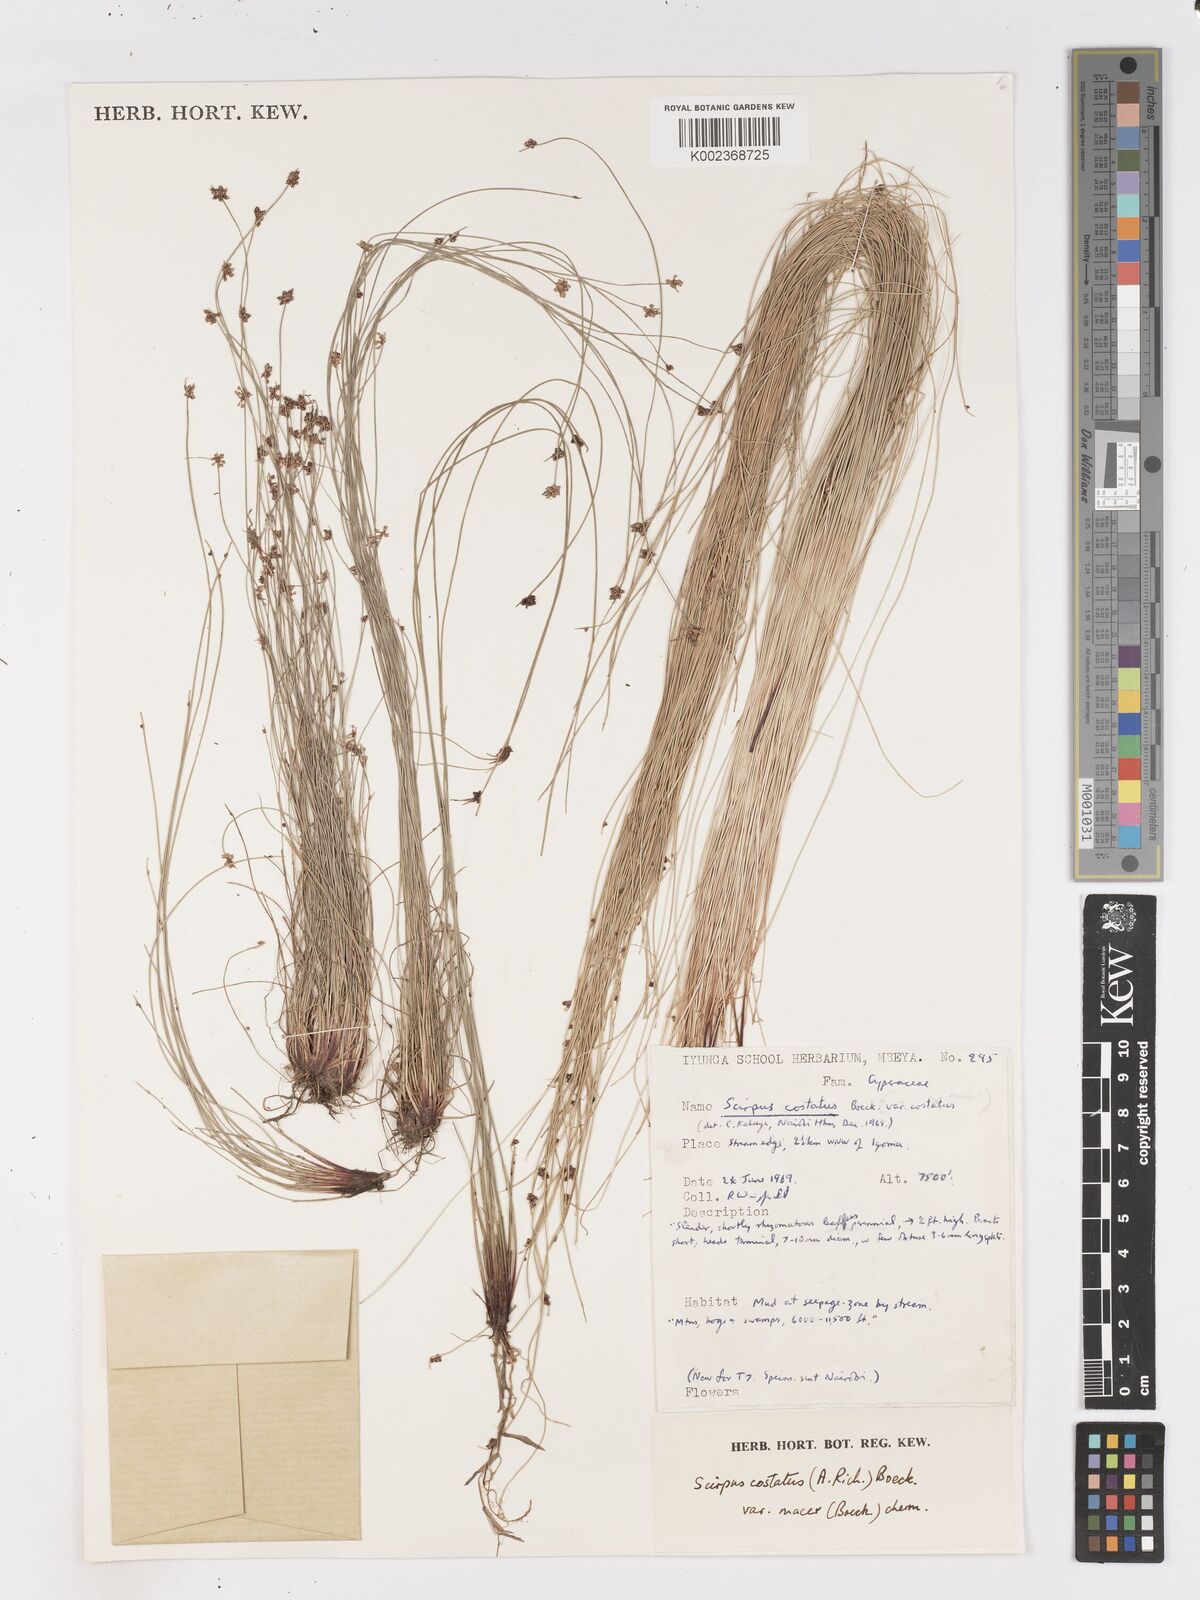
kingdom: Plantae
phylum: Tracheophyta
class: Liliopsida
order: Poales
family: Cyperaceae
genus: Isolepis
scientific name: Isolepis costata
